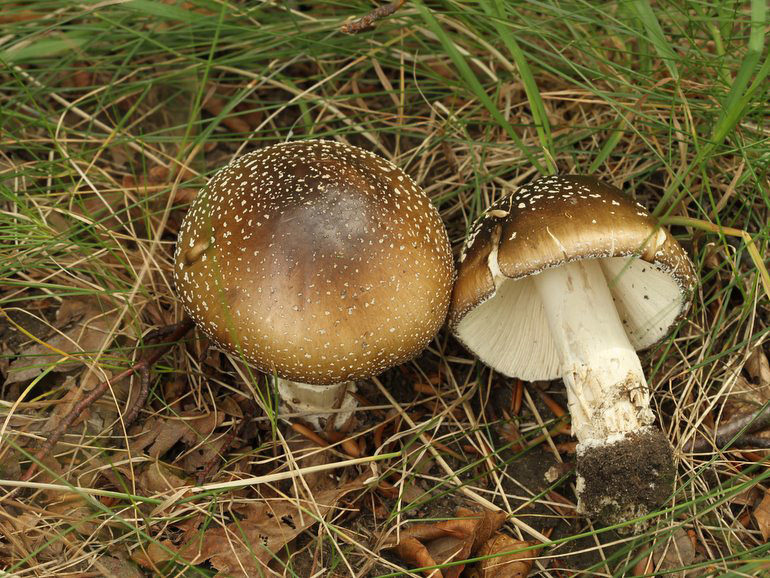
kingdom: Fungi
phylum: Basidiomycota
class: Agaricomycetes
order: Agaricales
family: Amanitaceae
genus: Amanita
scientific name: Amanita pantherina
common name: panter-fluesvamp
